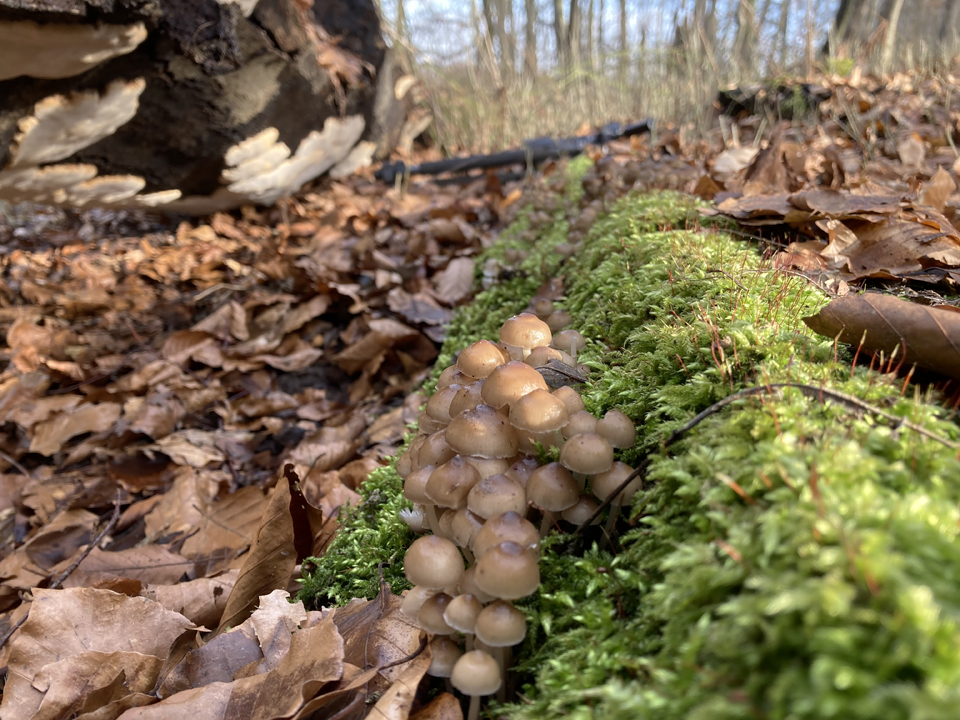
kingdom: Fungi
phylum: Basidiomycota
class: Agaricomycetes
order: Agaricales
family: Mycenaceae
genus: Mycena
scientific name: Mycena tintinnabulum
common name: vinter-huesvamp
